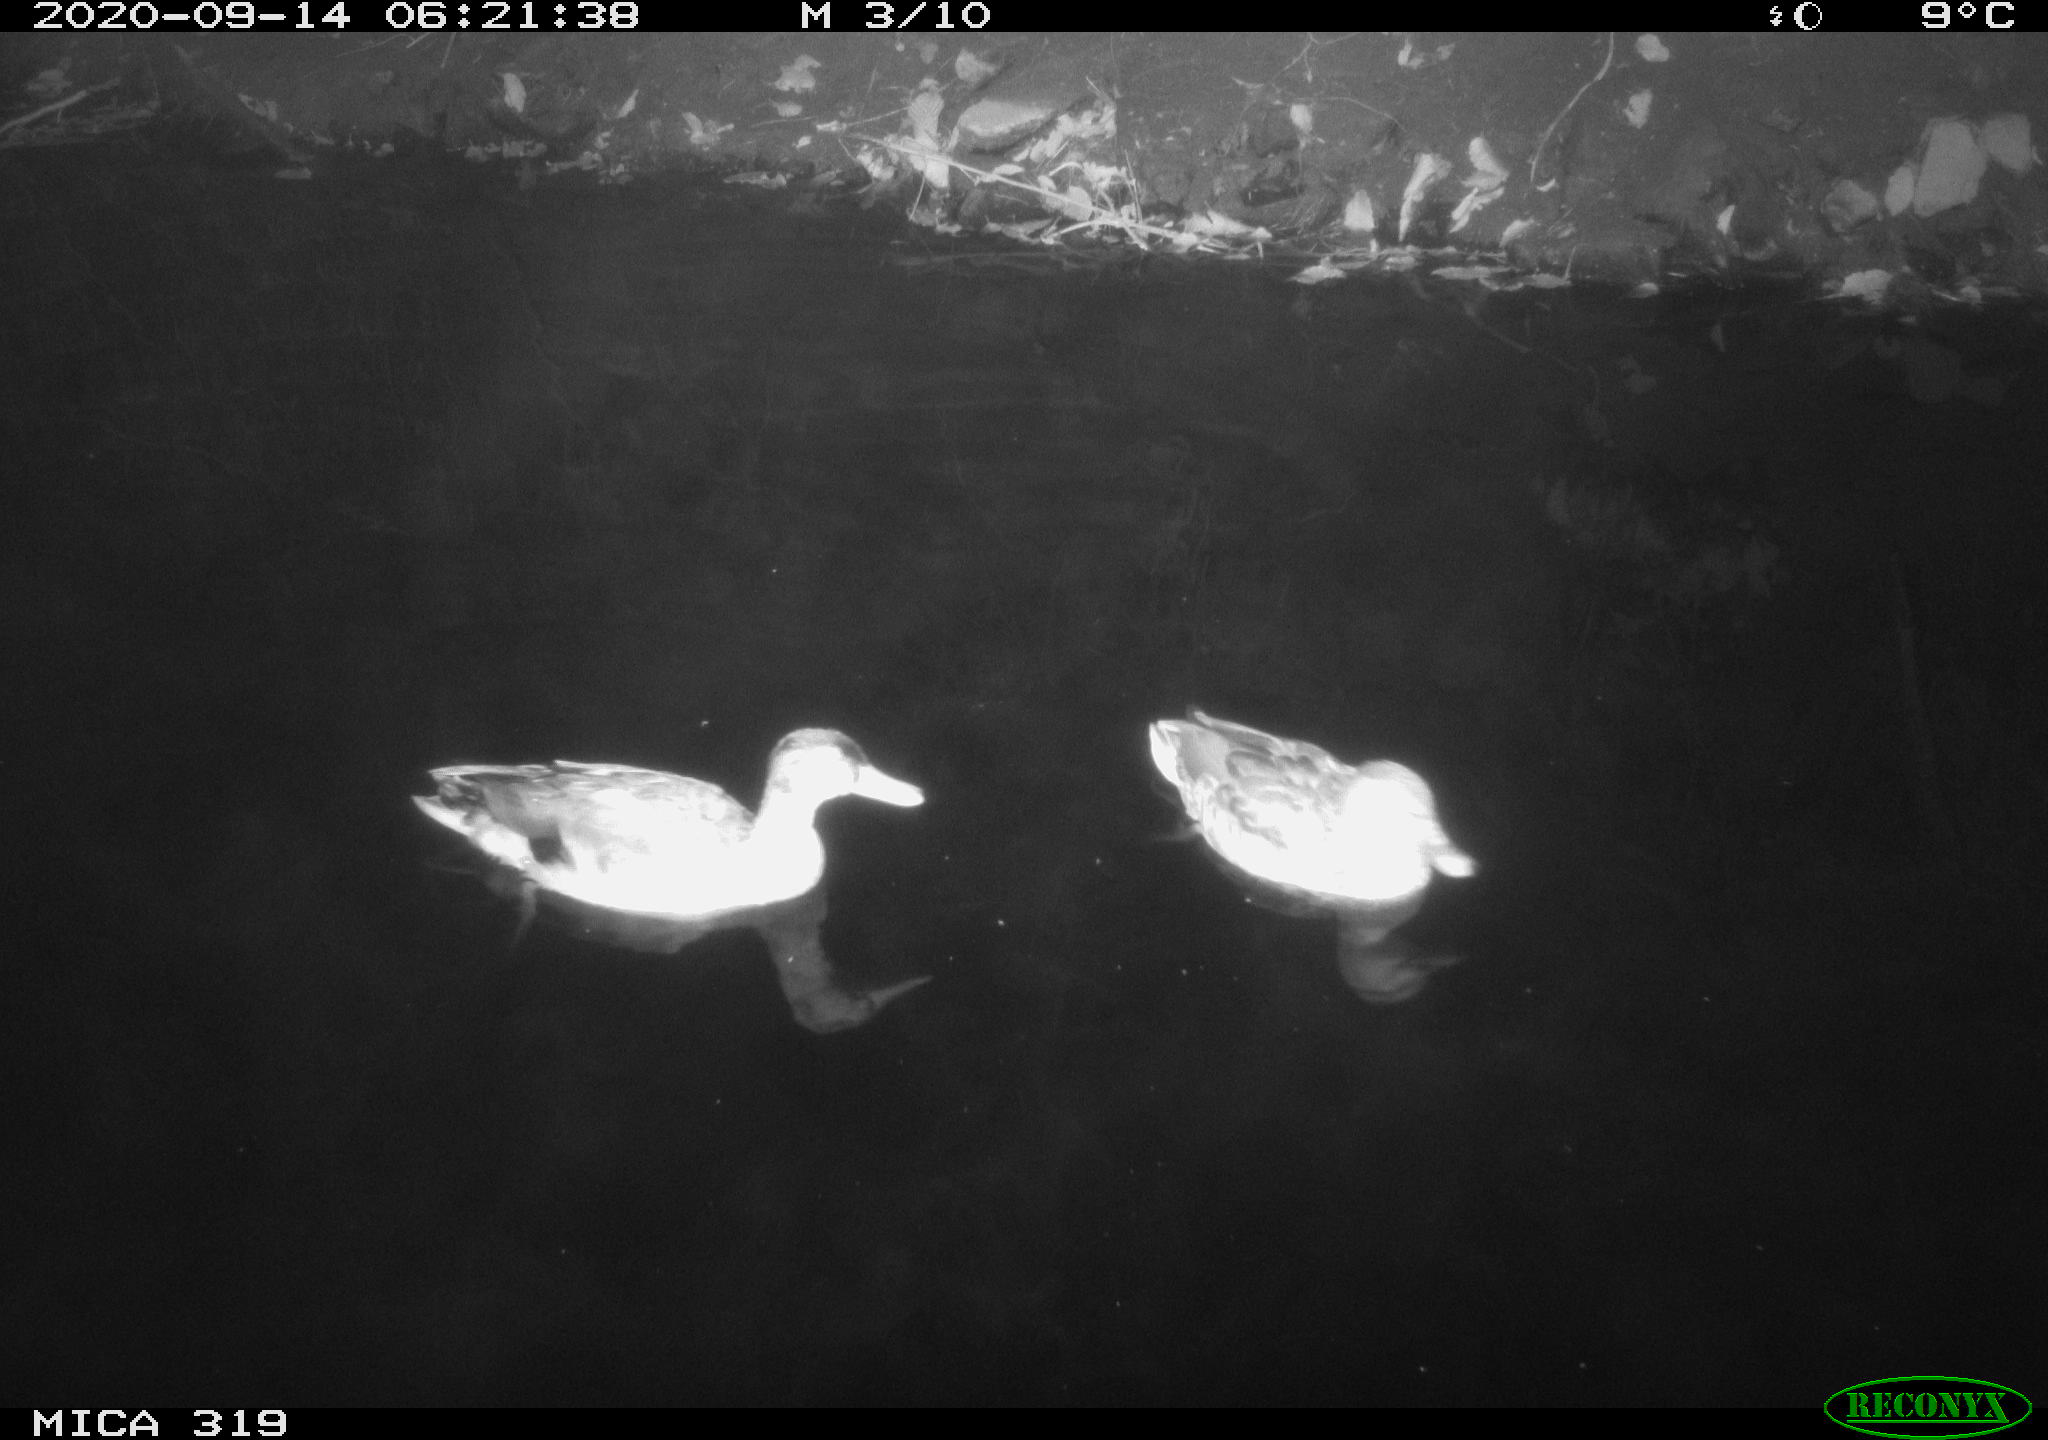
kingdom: Animalia
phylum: Chordata
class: Aves
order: Anseriformes
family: Anatidae
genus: Anas
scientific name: Anas platyrhynchos
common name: Mallard
